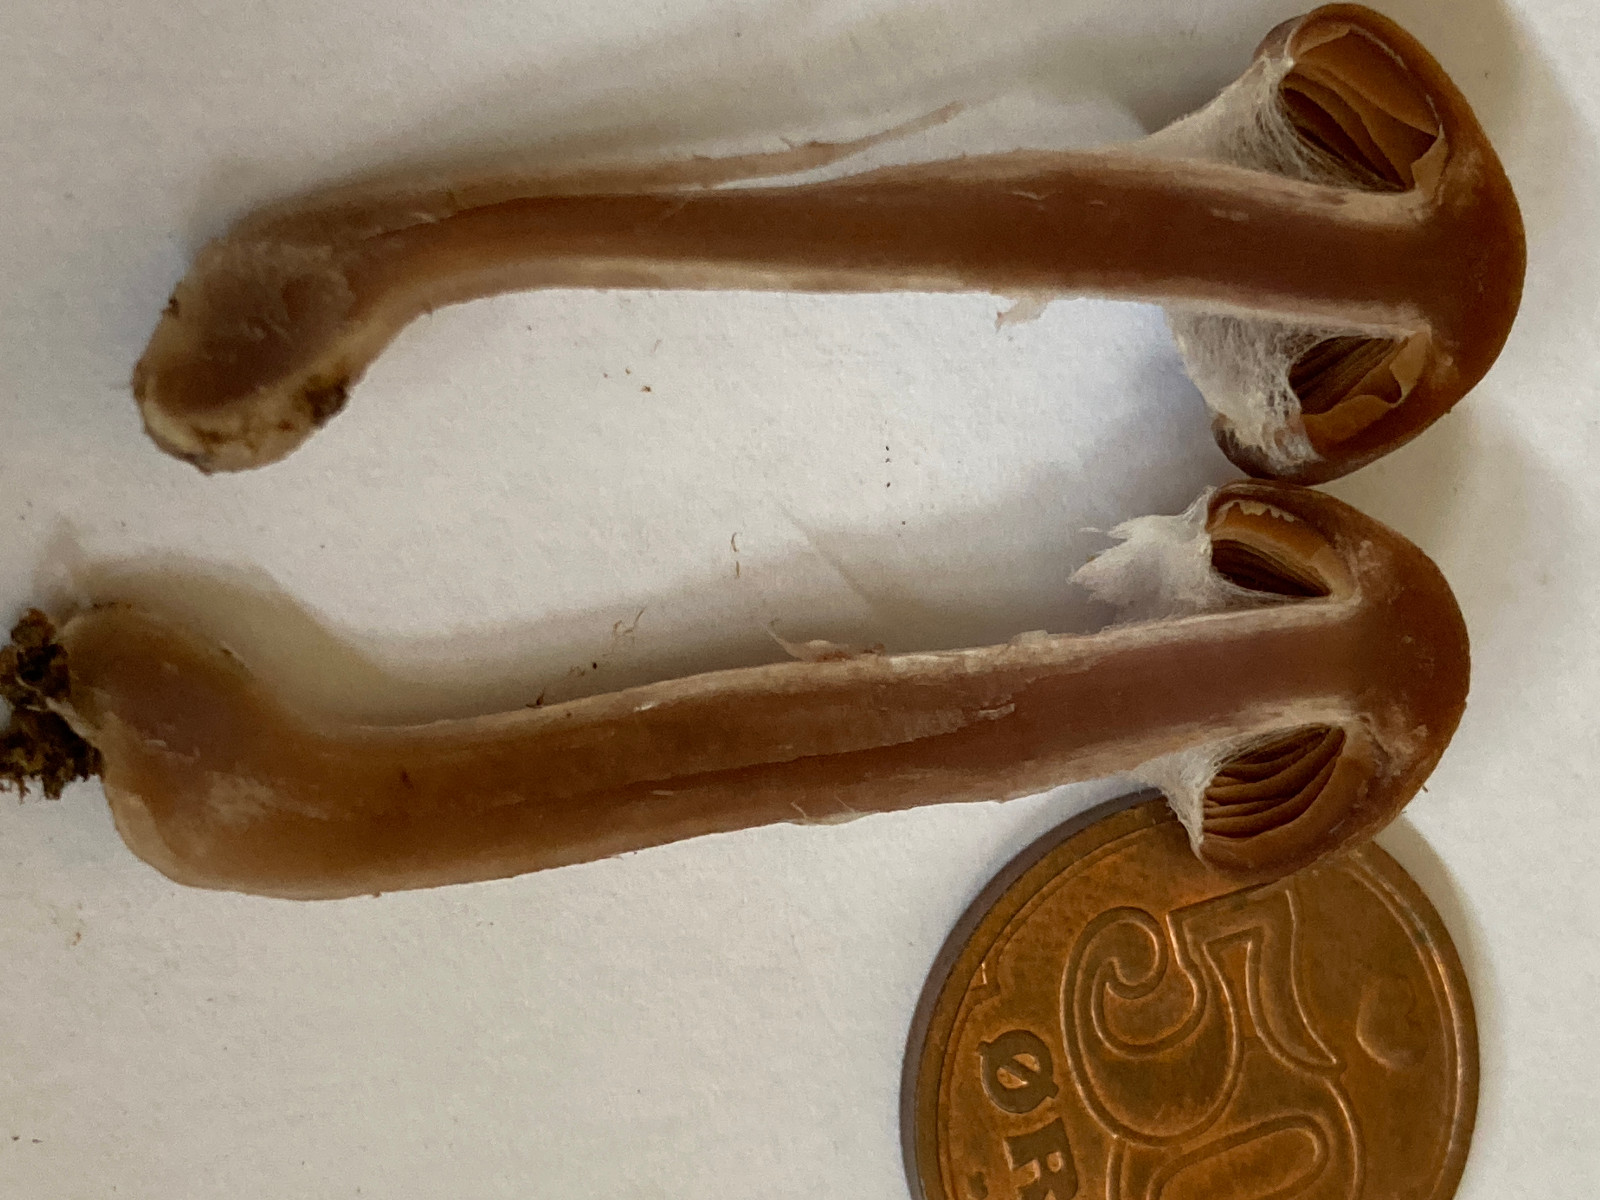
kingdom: Fungi
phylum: Basidiomycota
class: Agaricomycetes
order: Agaricales
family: Cortinariaceae
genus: Cortinarius
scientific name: Cortinarius
